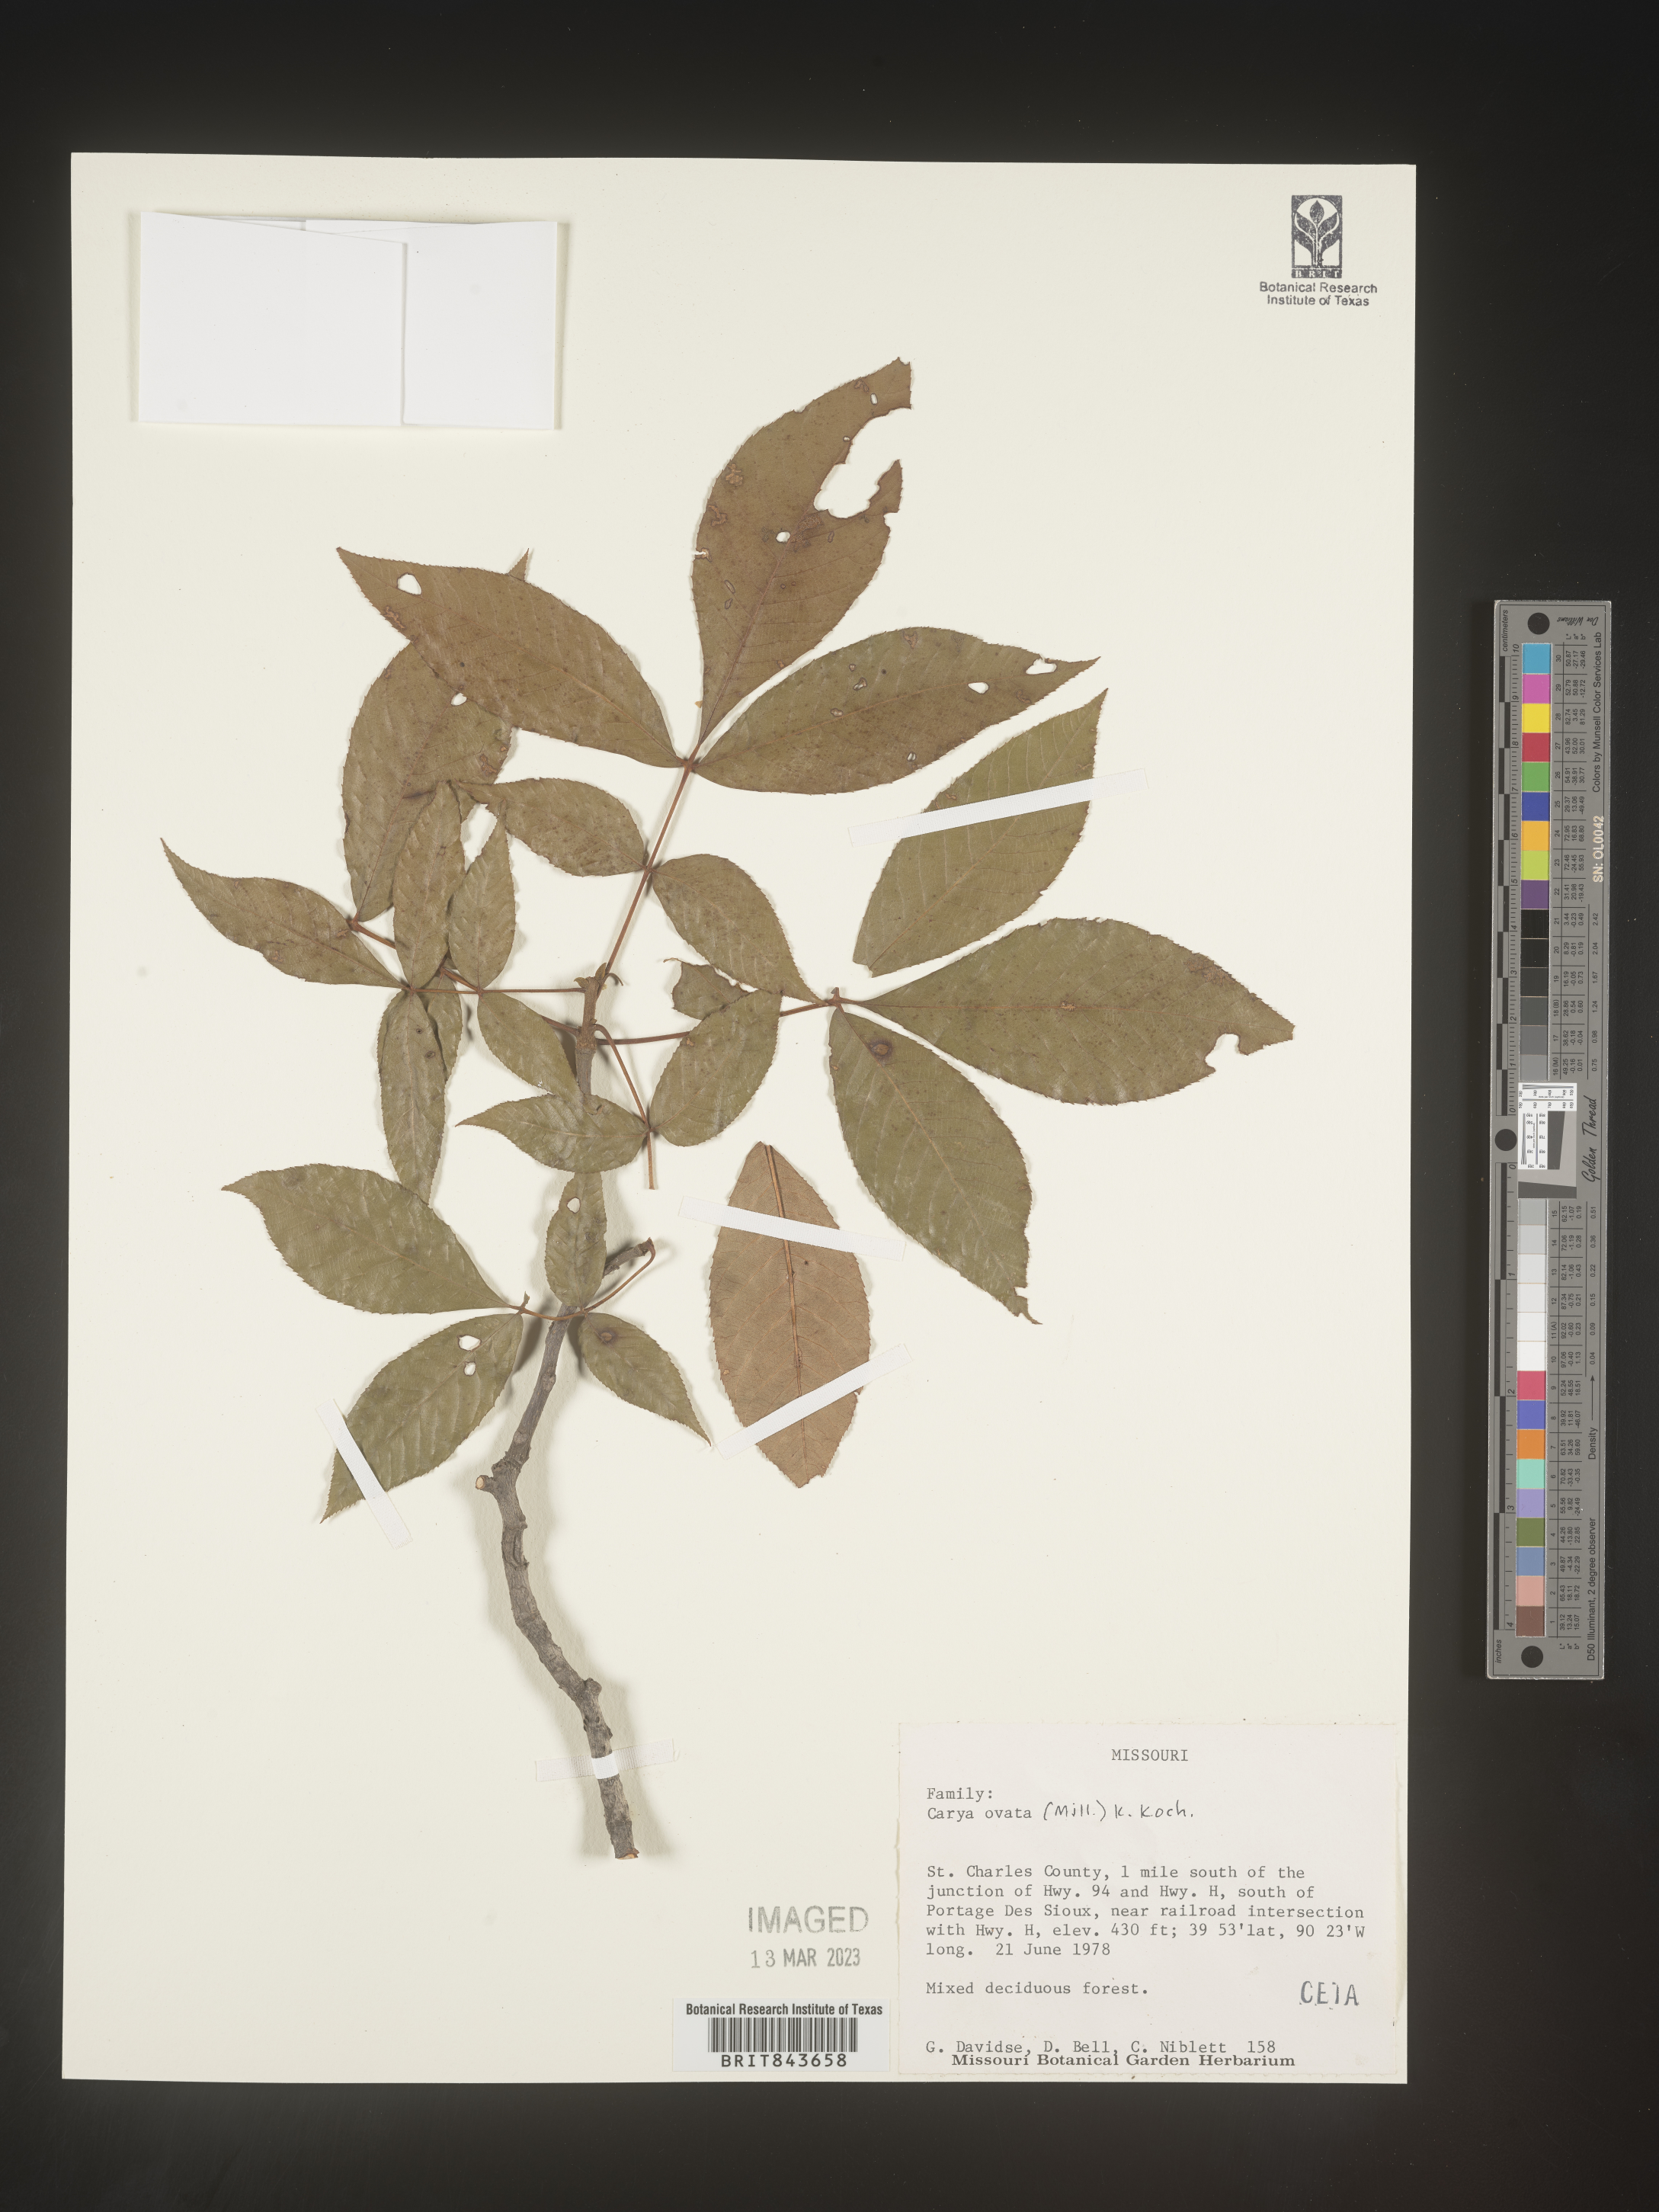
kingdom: Plantae
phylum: Tracheophyta
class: Magnoliopsida
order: Fagales
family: Juglandaceae
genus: Carya
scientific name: Carya ovata
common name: Shagbark hickory
